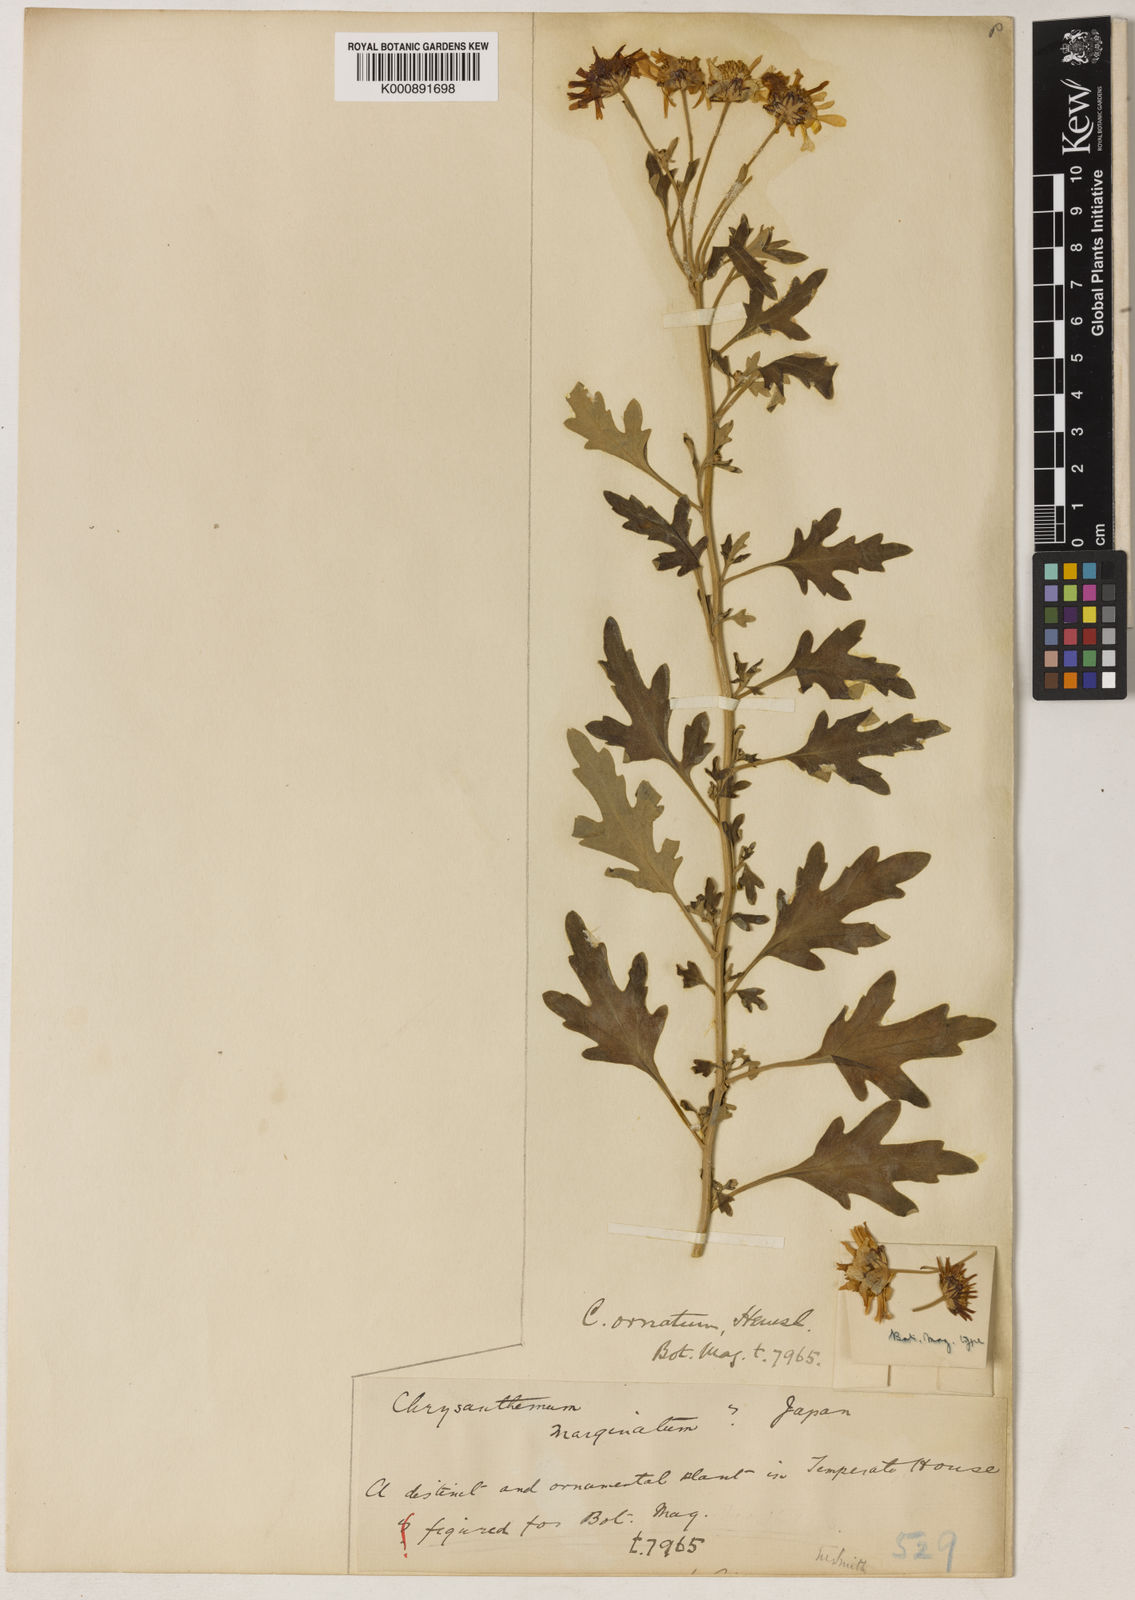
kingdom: Plantae
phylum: Tracheophyta
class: Magnoliopsida
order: Asterales
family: Asteraceae
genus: Chrysanthemum
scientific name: Chrysanthemum ornatum
